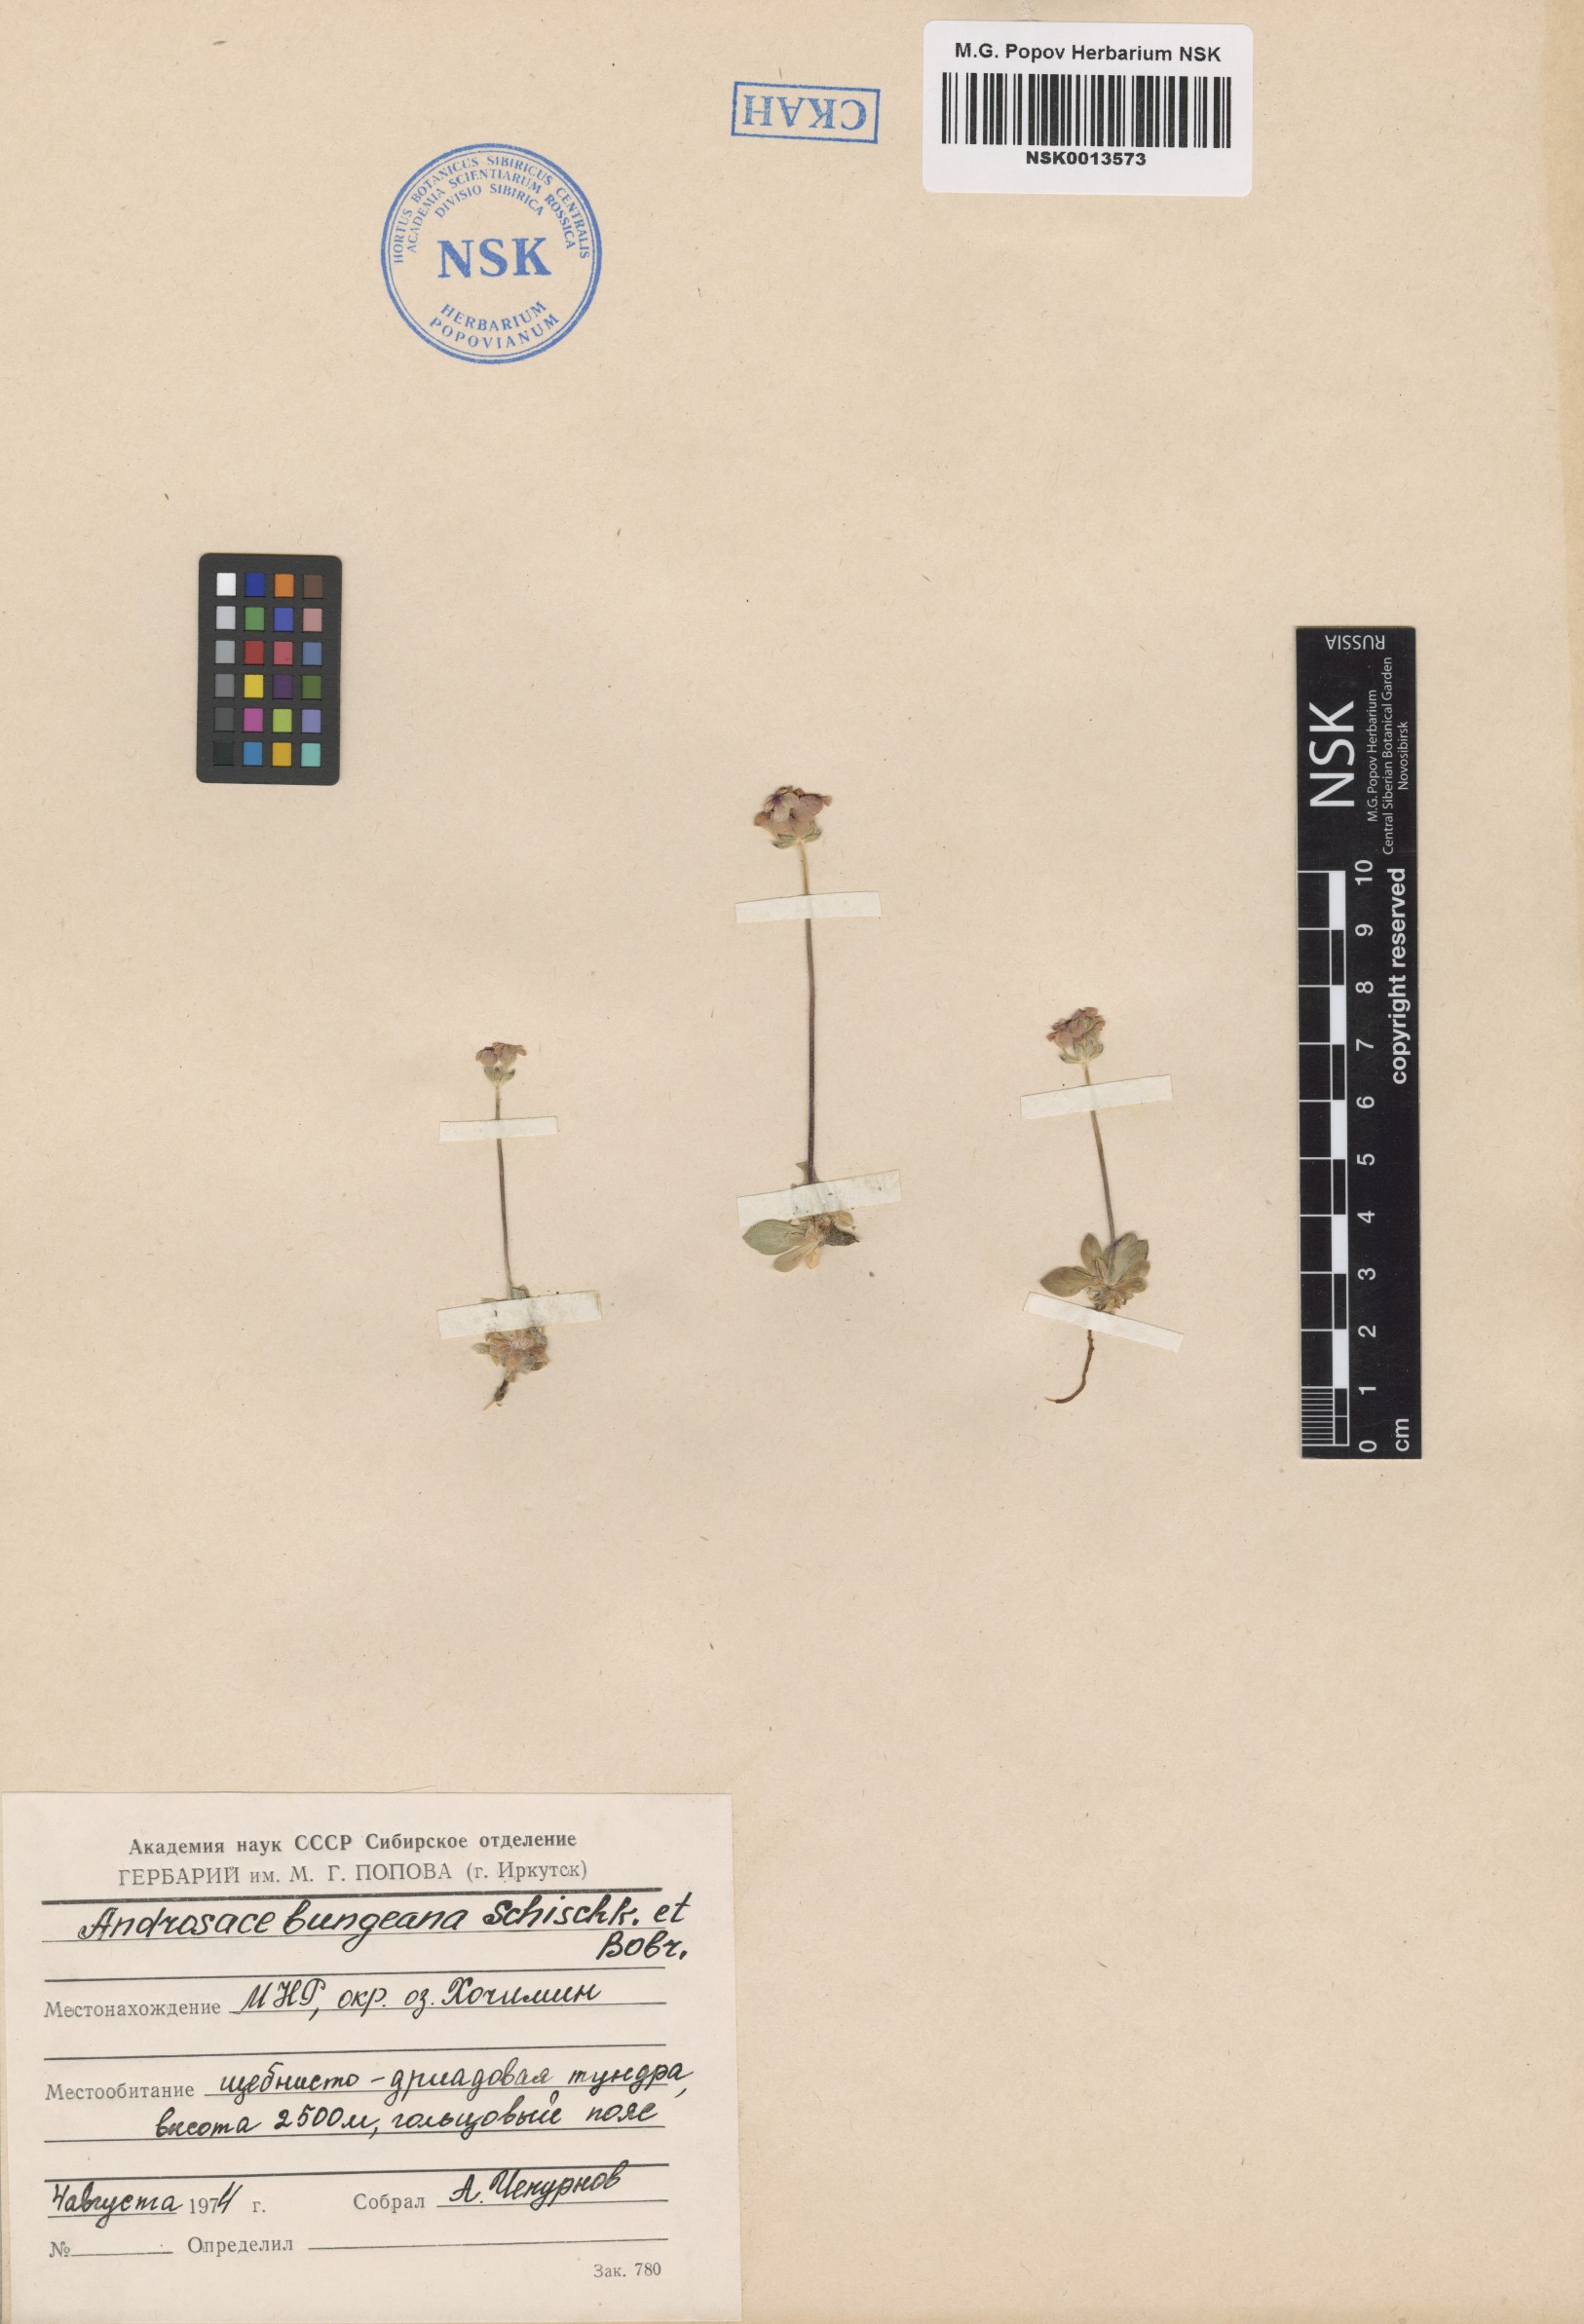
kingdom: Plantae
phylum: Tracheophyta
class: Magnoliopsida
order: Ericales
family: Primulaceae
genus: Androsace
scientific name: Androsace bungeana
